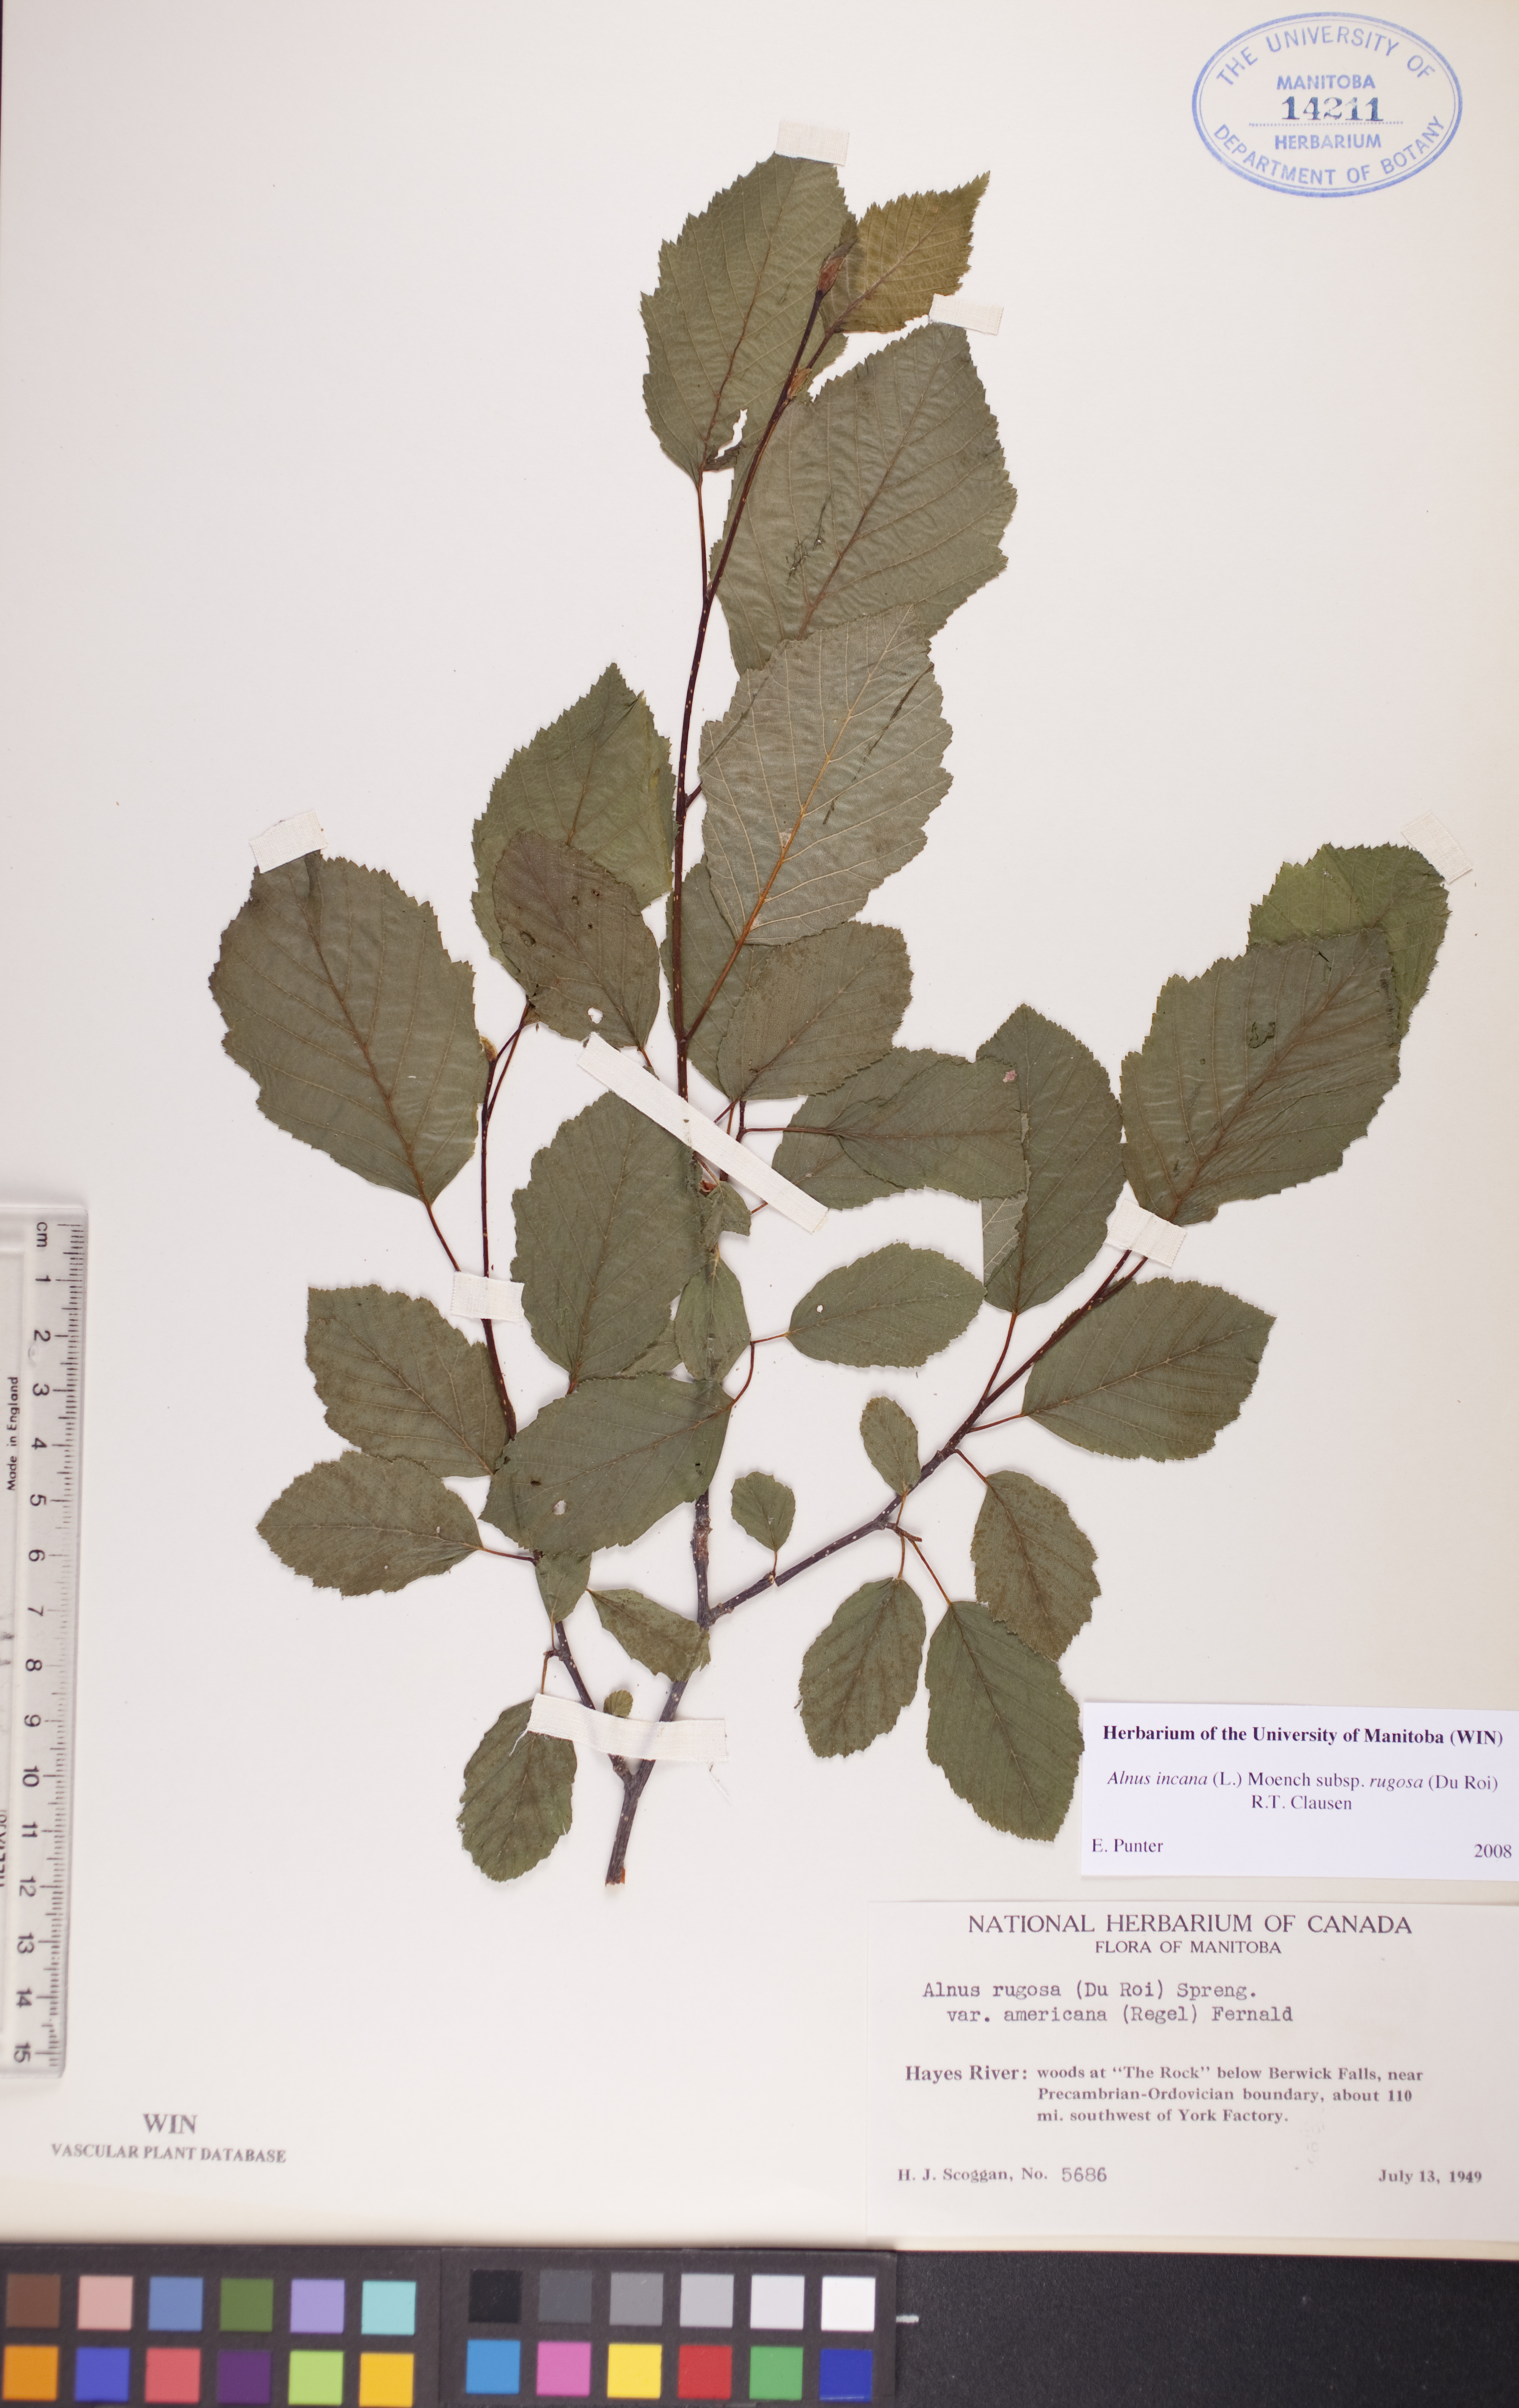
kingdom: Plantae
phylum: Tracheophyta
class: Magnoliopsida
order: Fagales
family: Betulaceae
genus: Alnus
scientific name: Alnus incana
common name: Grey alder
